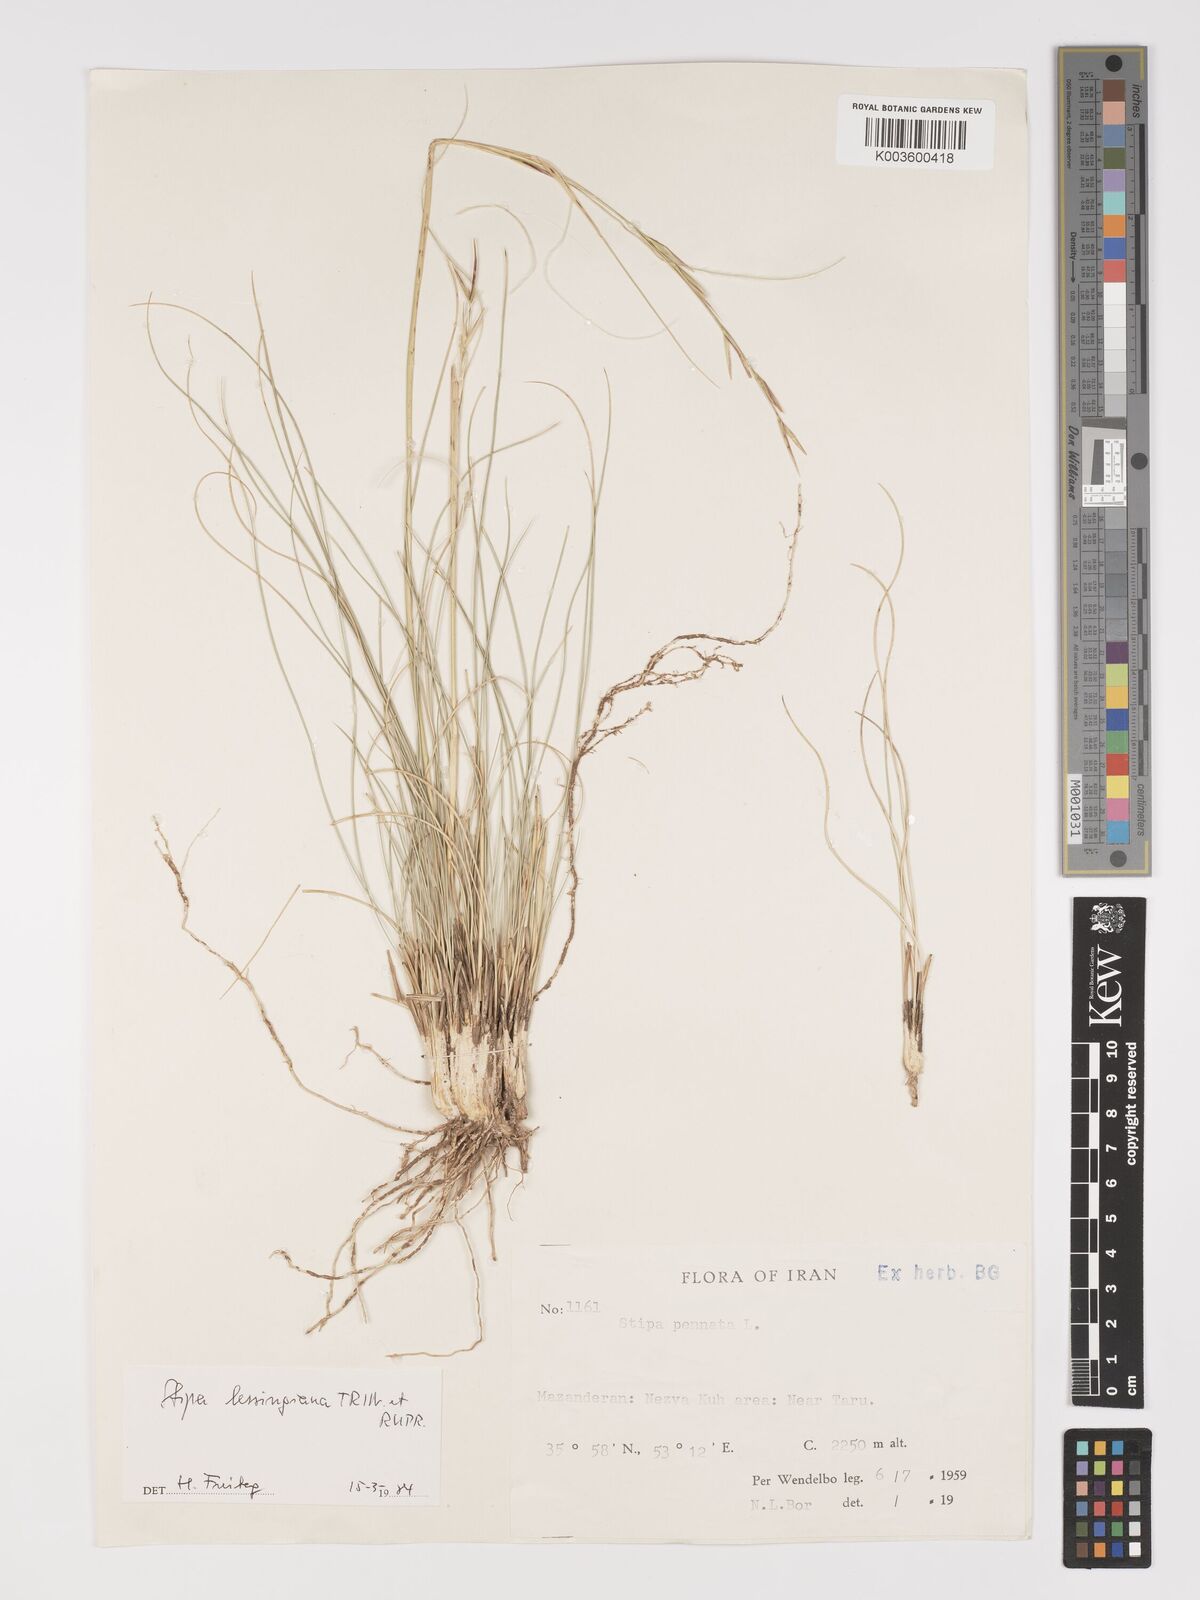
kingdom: Plantae
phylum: Tracheophyta
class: Liliopsida
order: Poales
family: Poaceae
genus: Stipa
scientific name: Stipa lessingiana
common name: Needle grass
